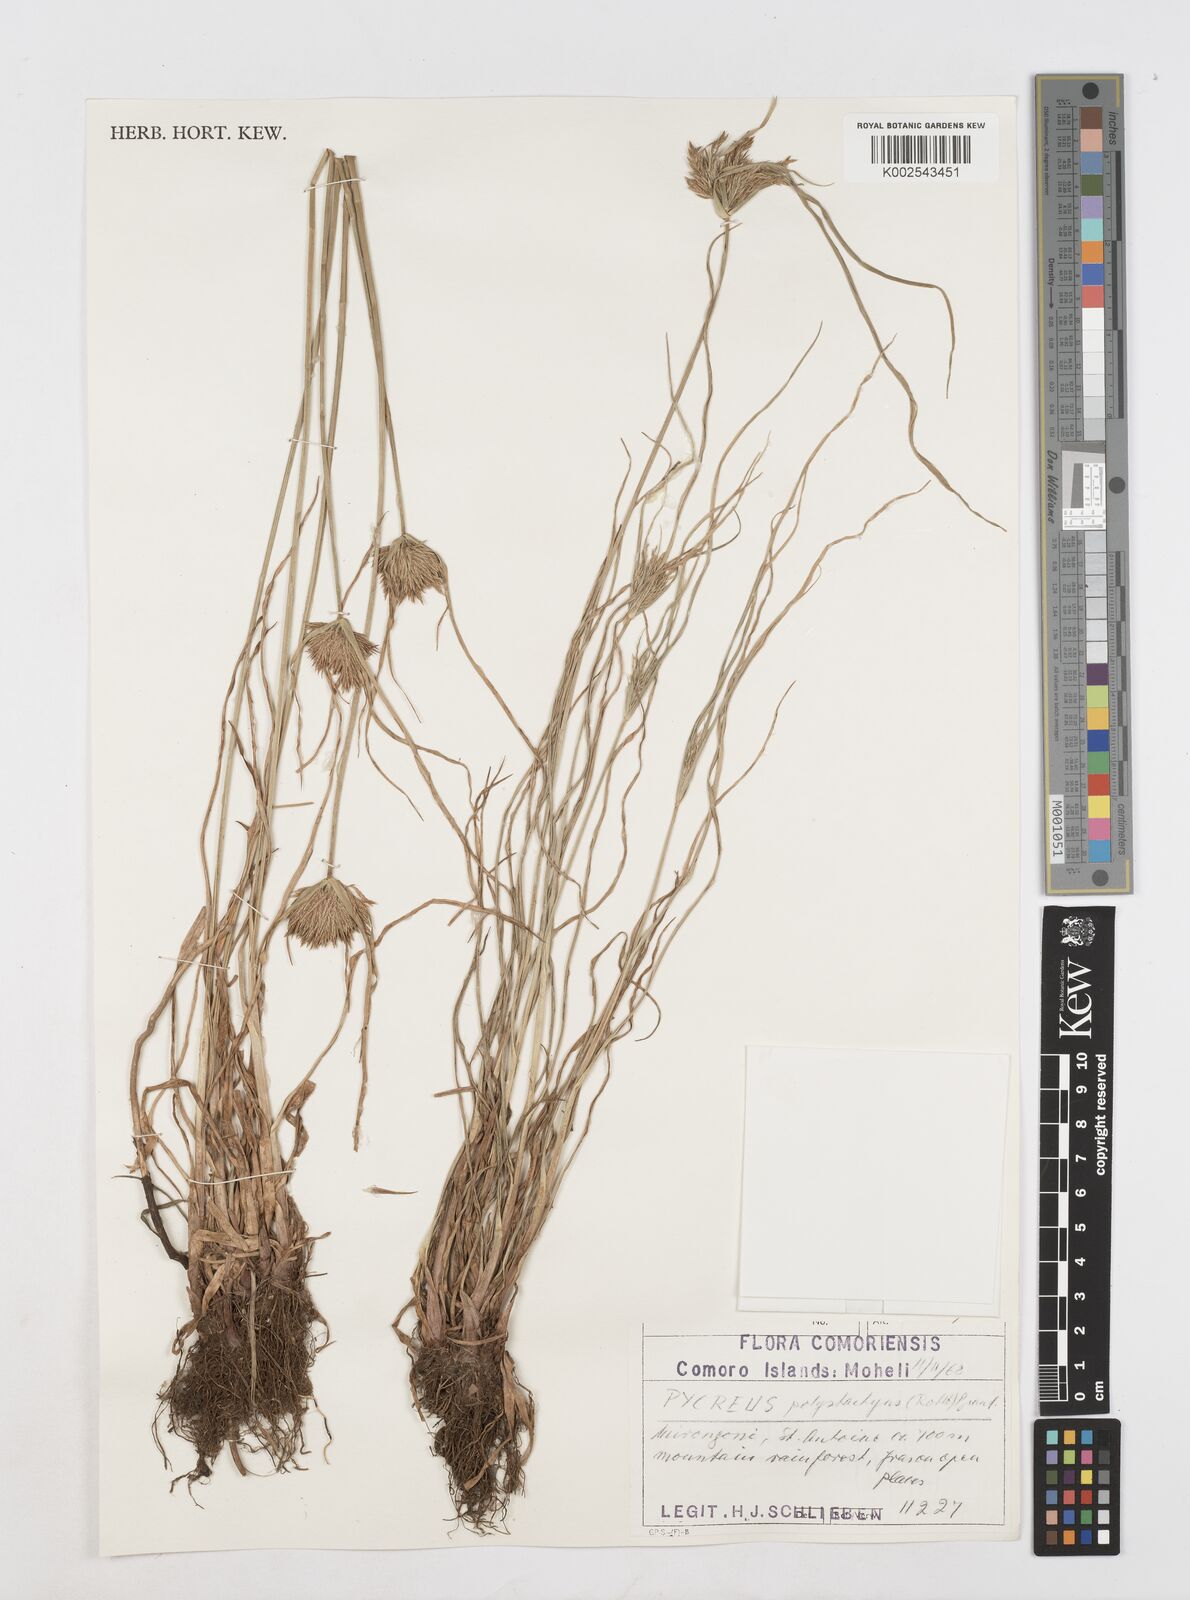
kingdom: Plantae
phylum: Tracheophyta
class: Liliopsida
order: Poales
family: Cyperaceae
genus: Cyperus
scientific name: Cyperus polystachyos
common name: Bunchy flat sedge
